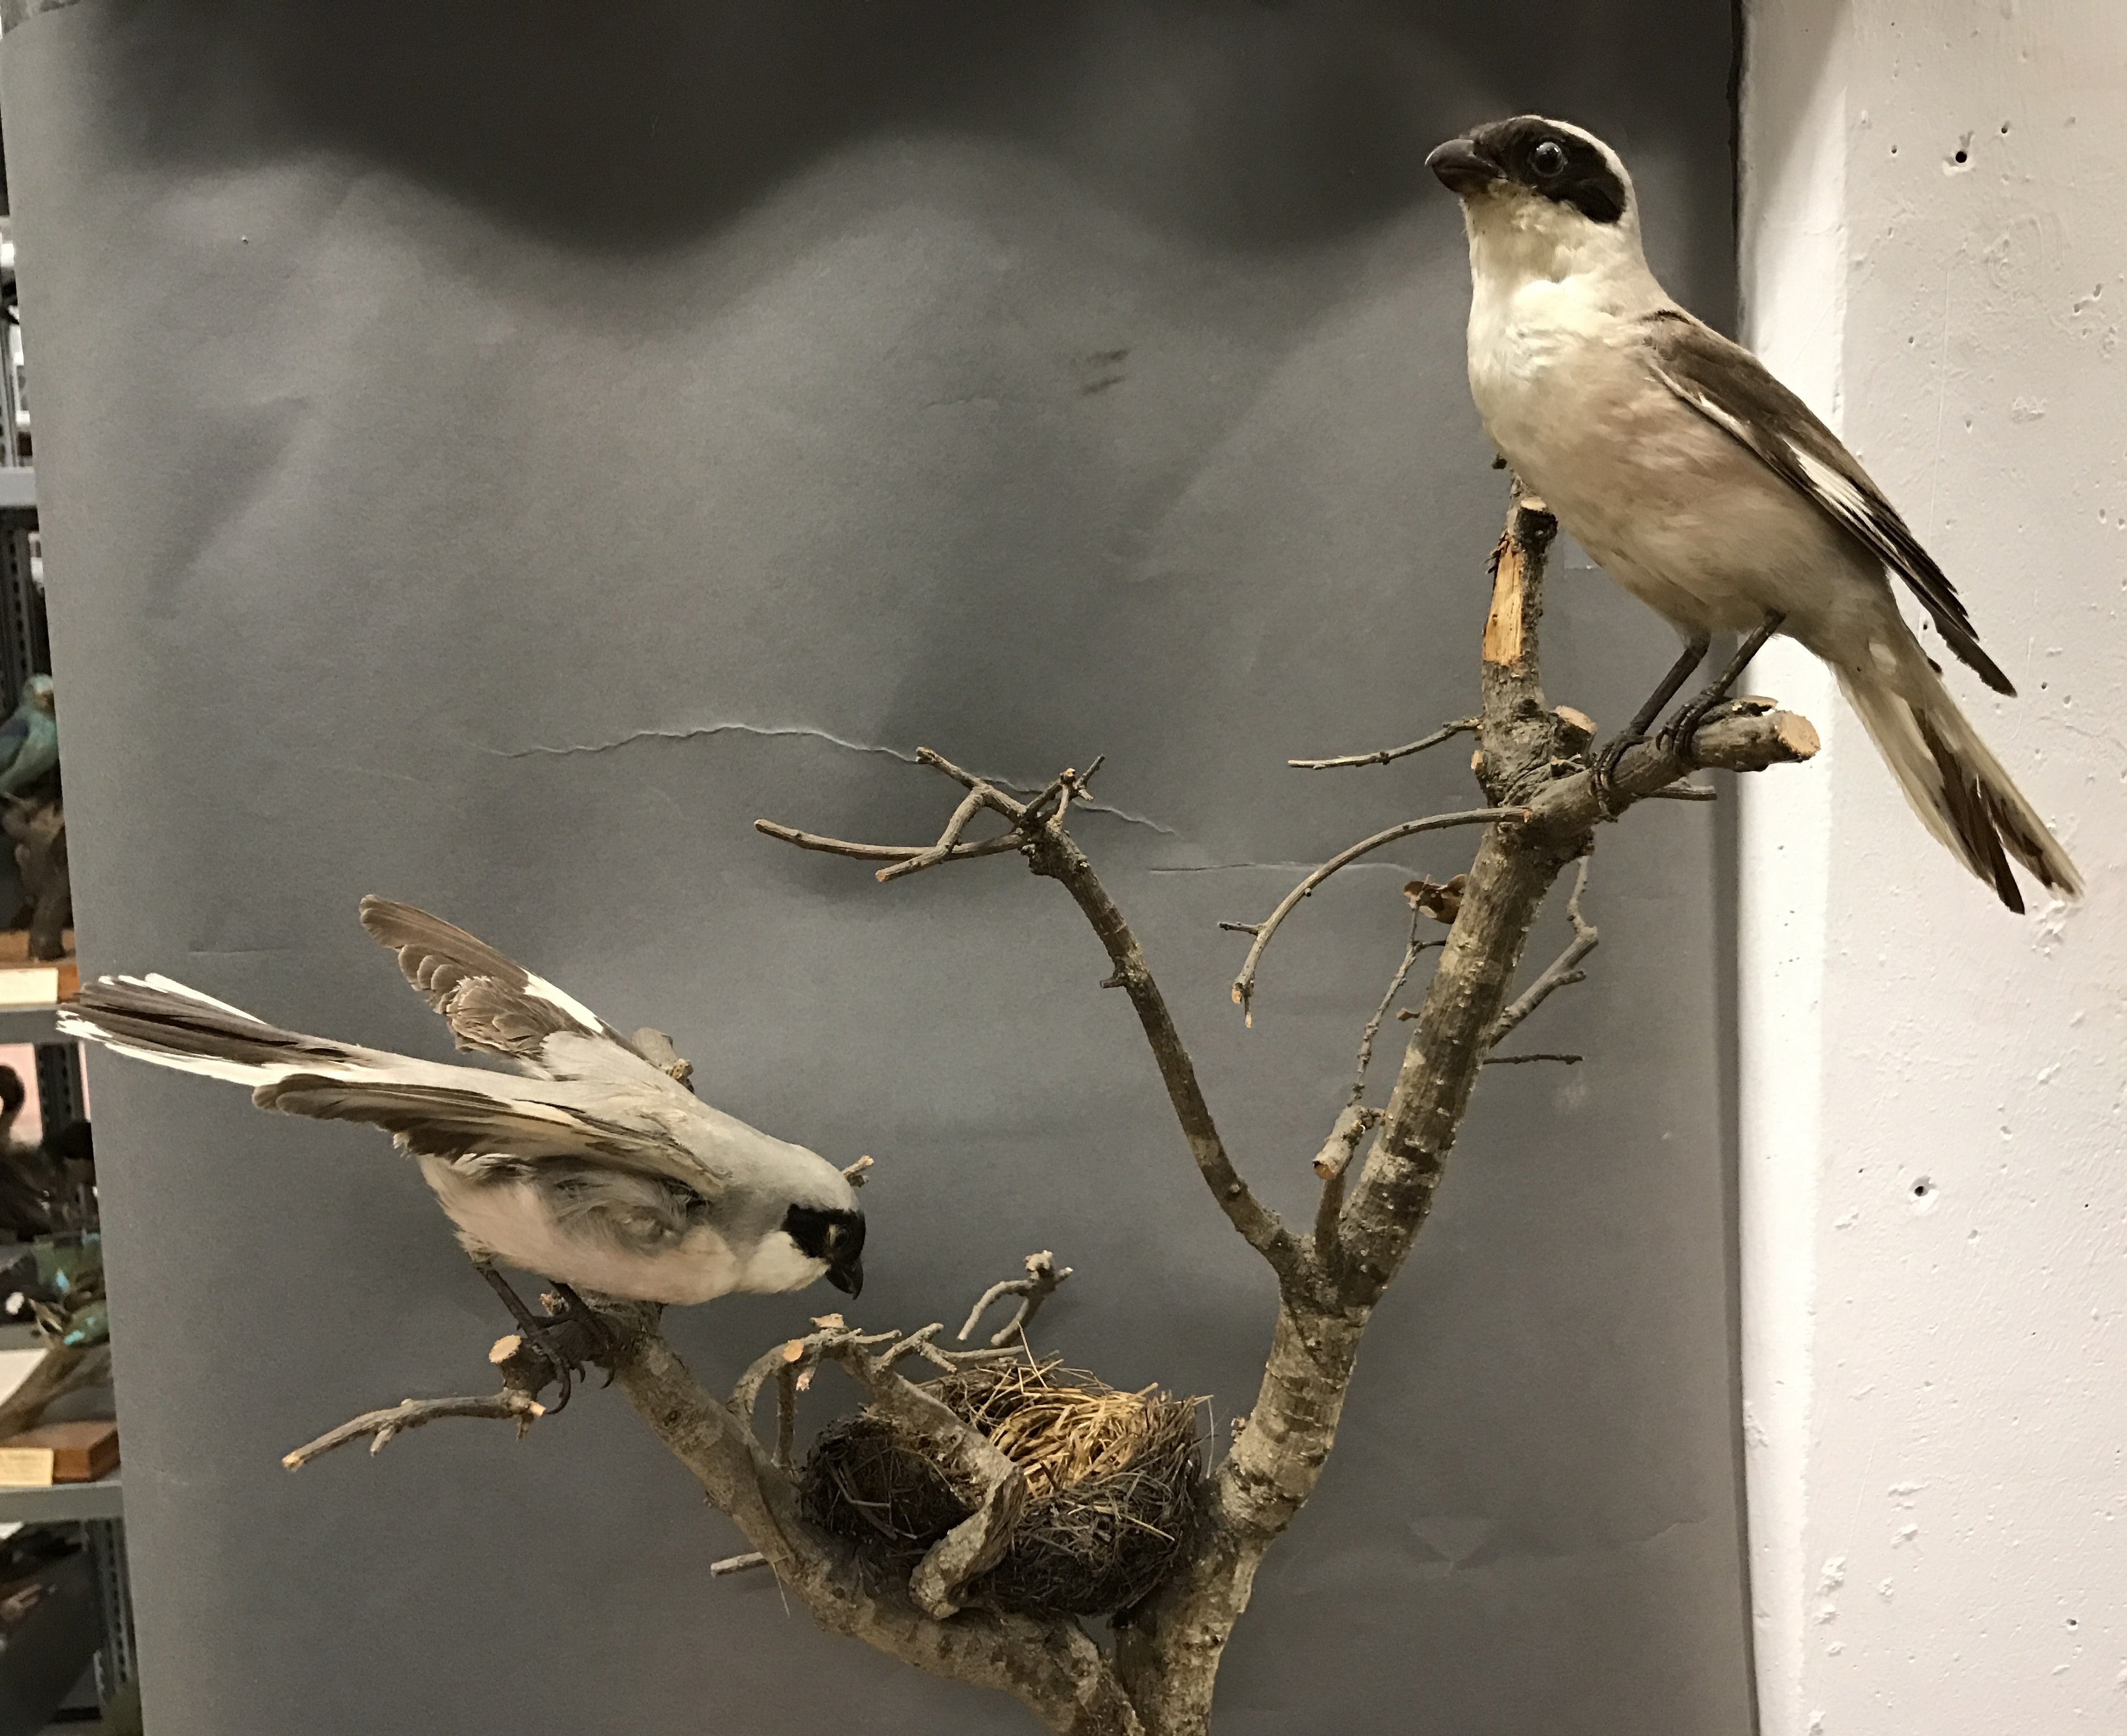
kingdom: Animalia
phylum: Chordata
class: Aves
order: Passeriformes
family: Laniidae
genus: Lanius
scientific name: Lanius minor
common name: Lesser grey shrike
